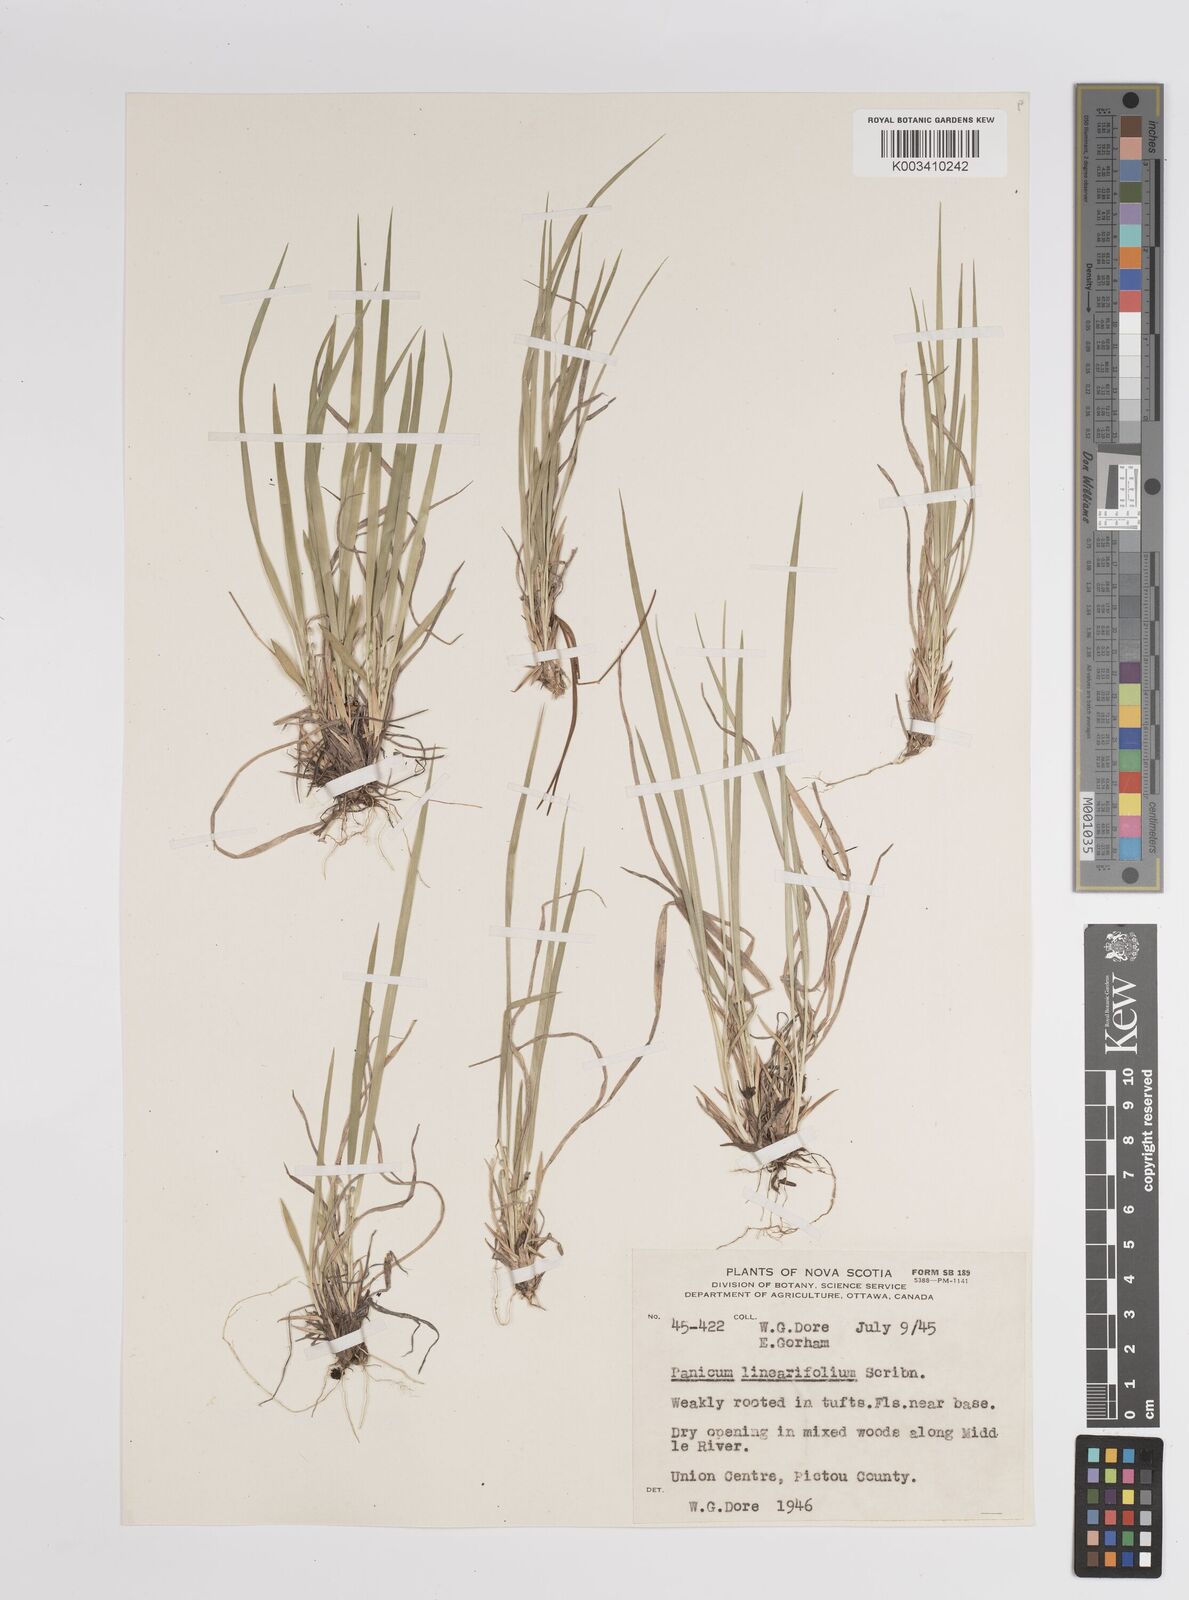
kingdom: Plantae
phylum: Tracheophyta
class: Liliopsida
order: Poales
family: Poaceae
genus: Dichanthelium
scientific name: Dichanthelium linearifolium
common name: Linear-leaved panicgrass
